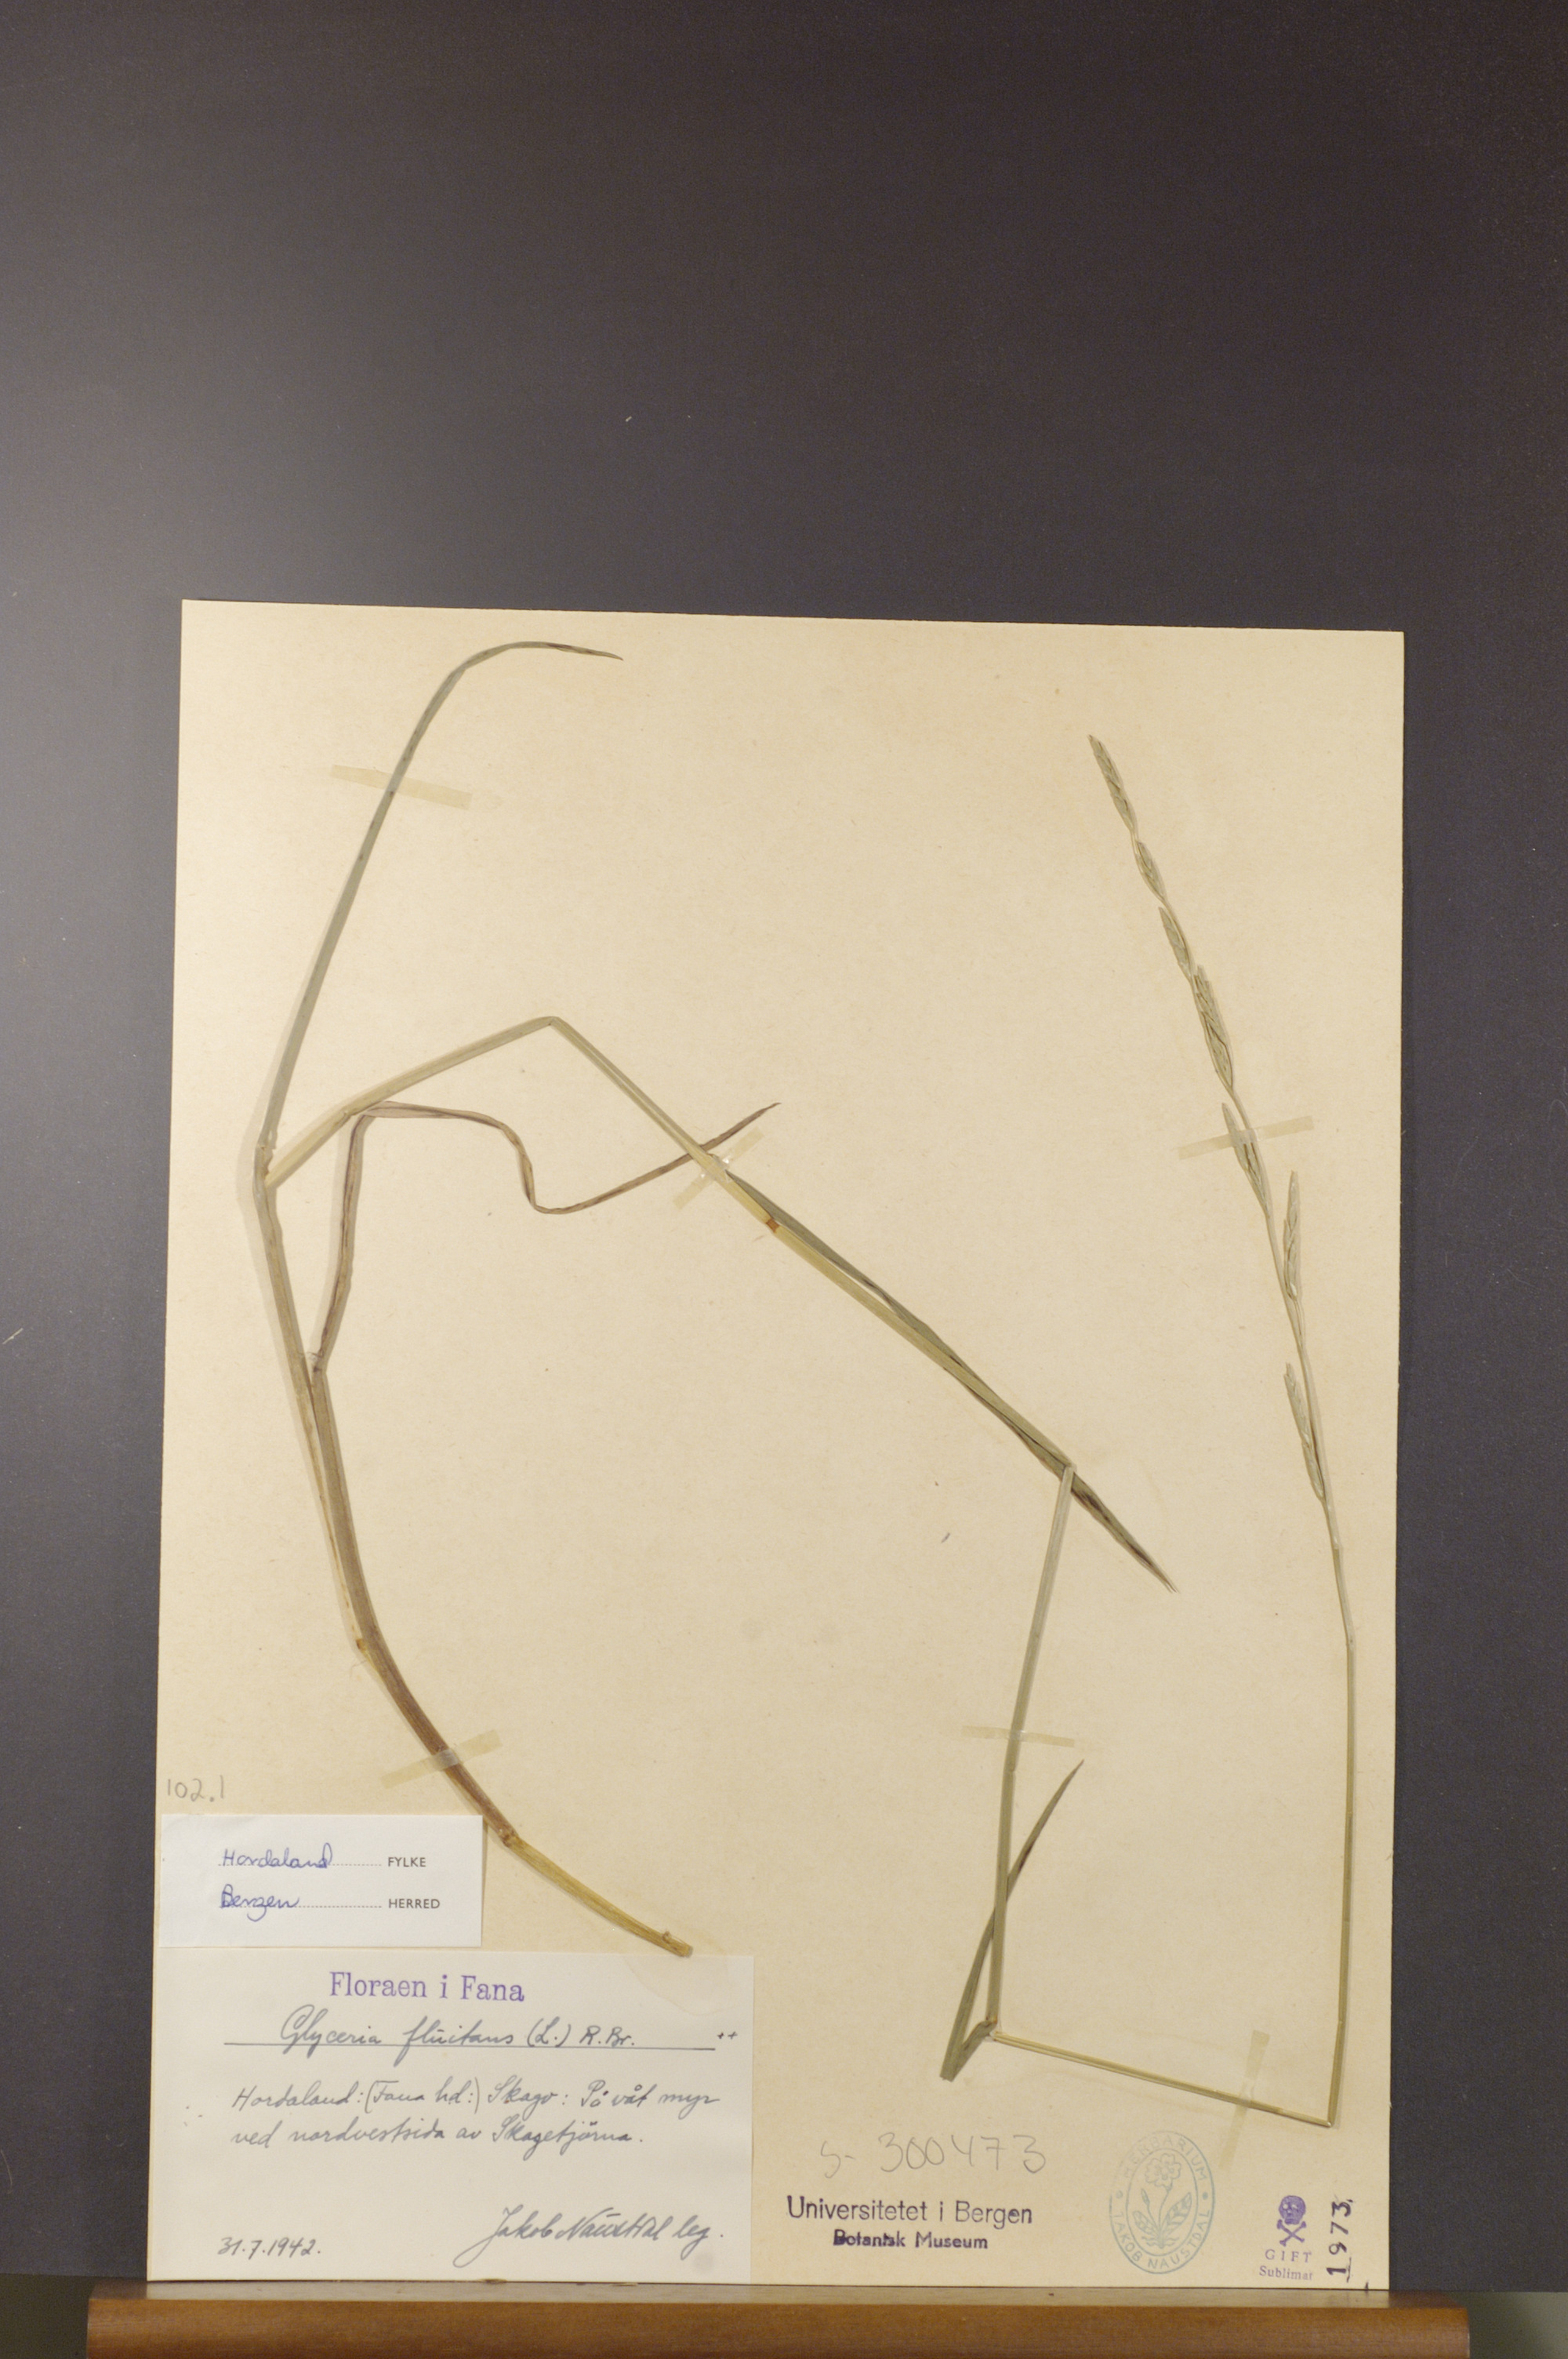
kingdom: Plantae
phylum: Tracheophyta
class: Liliopsida
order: Poales
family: Poaceae
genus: Glyceria
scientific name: Glyceria fluitans
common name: Floating sweet-grass
